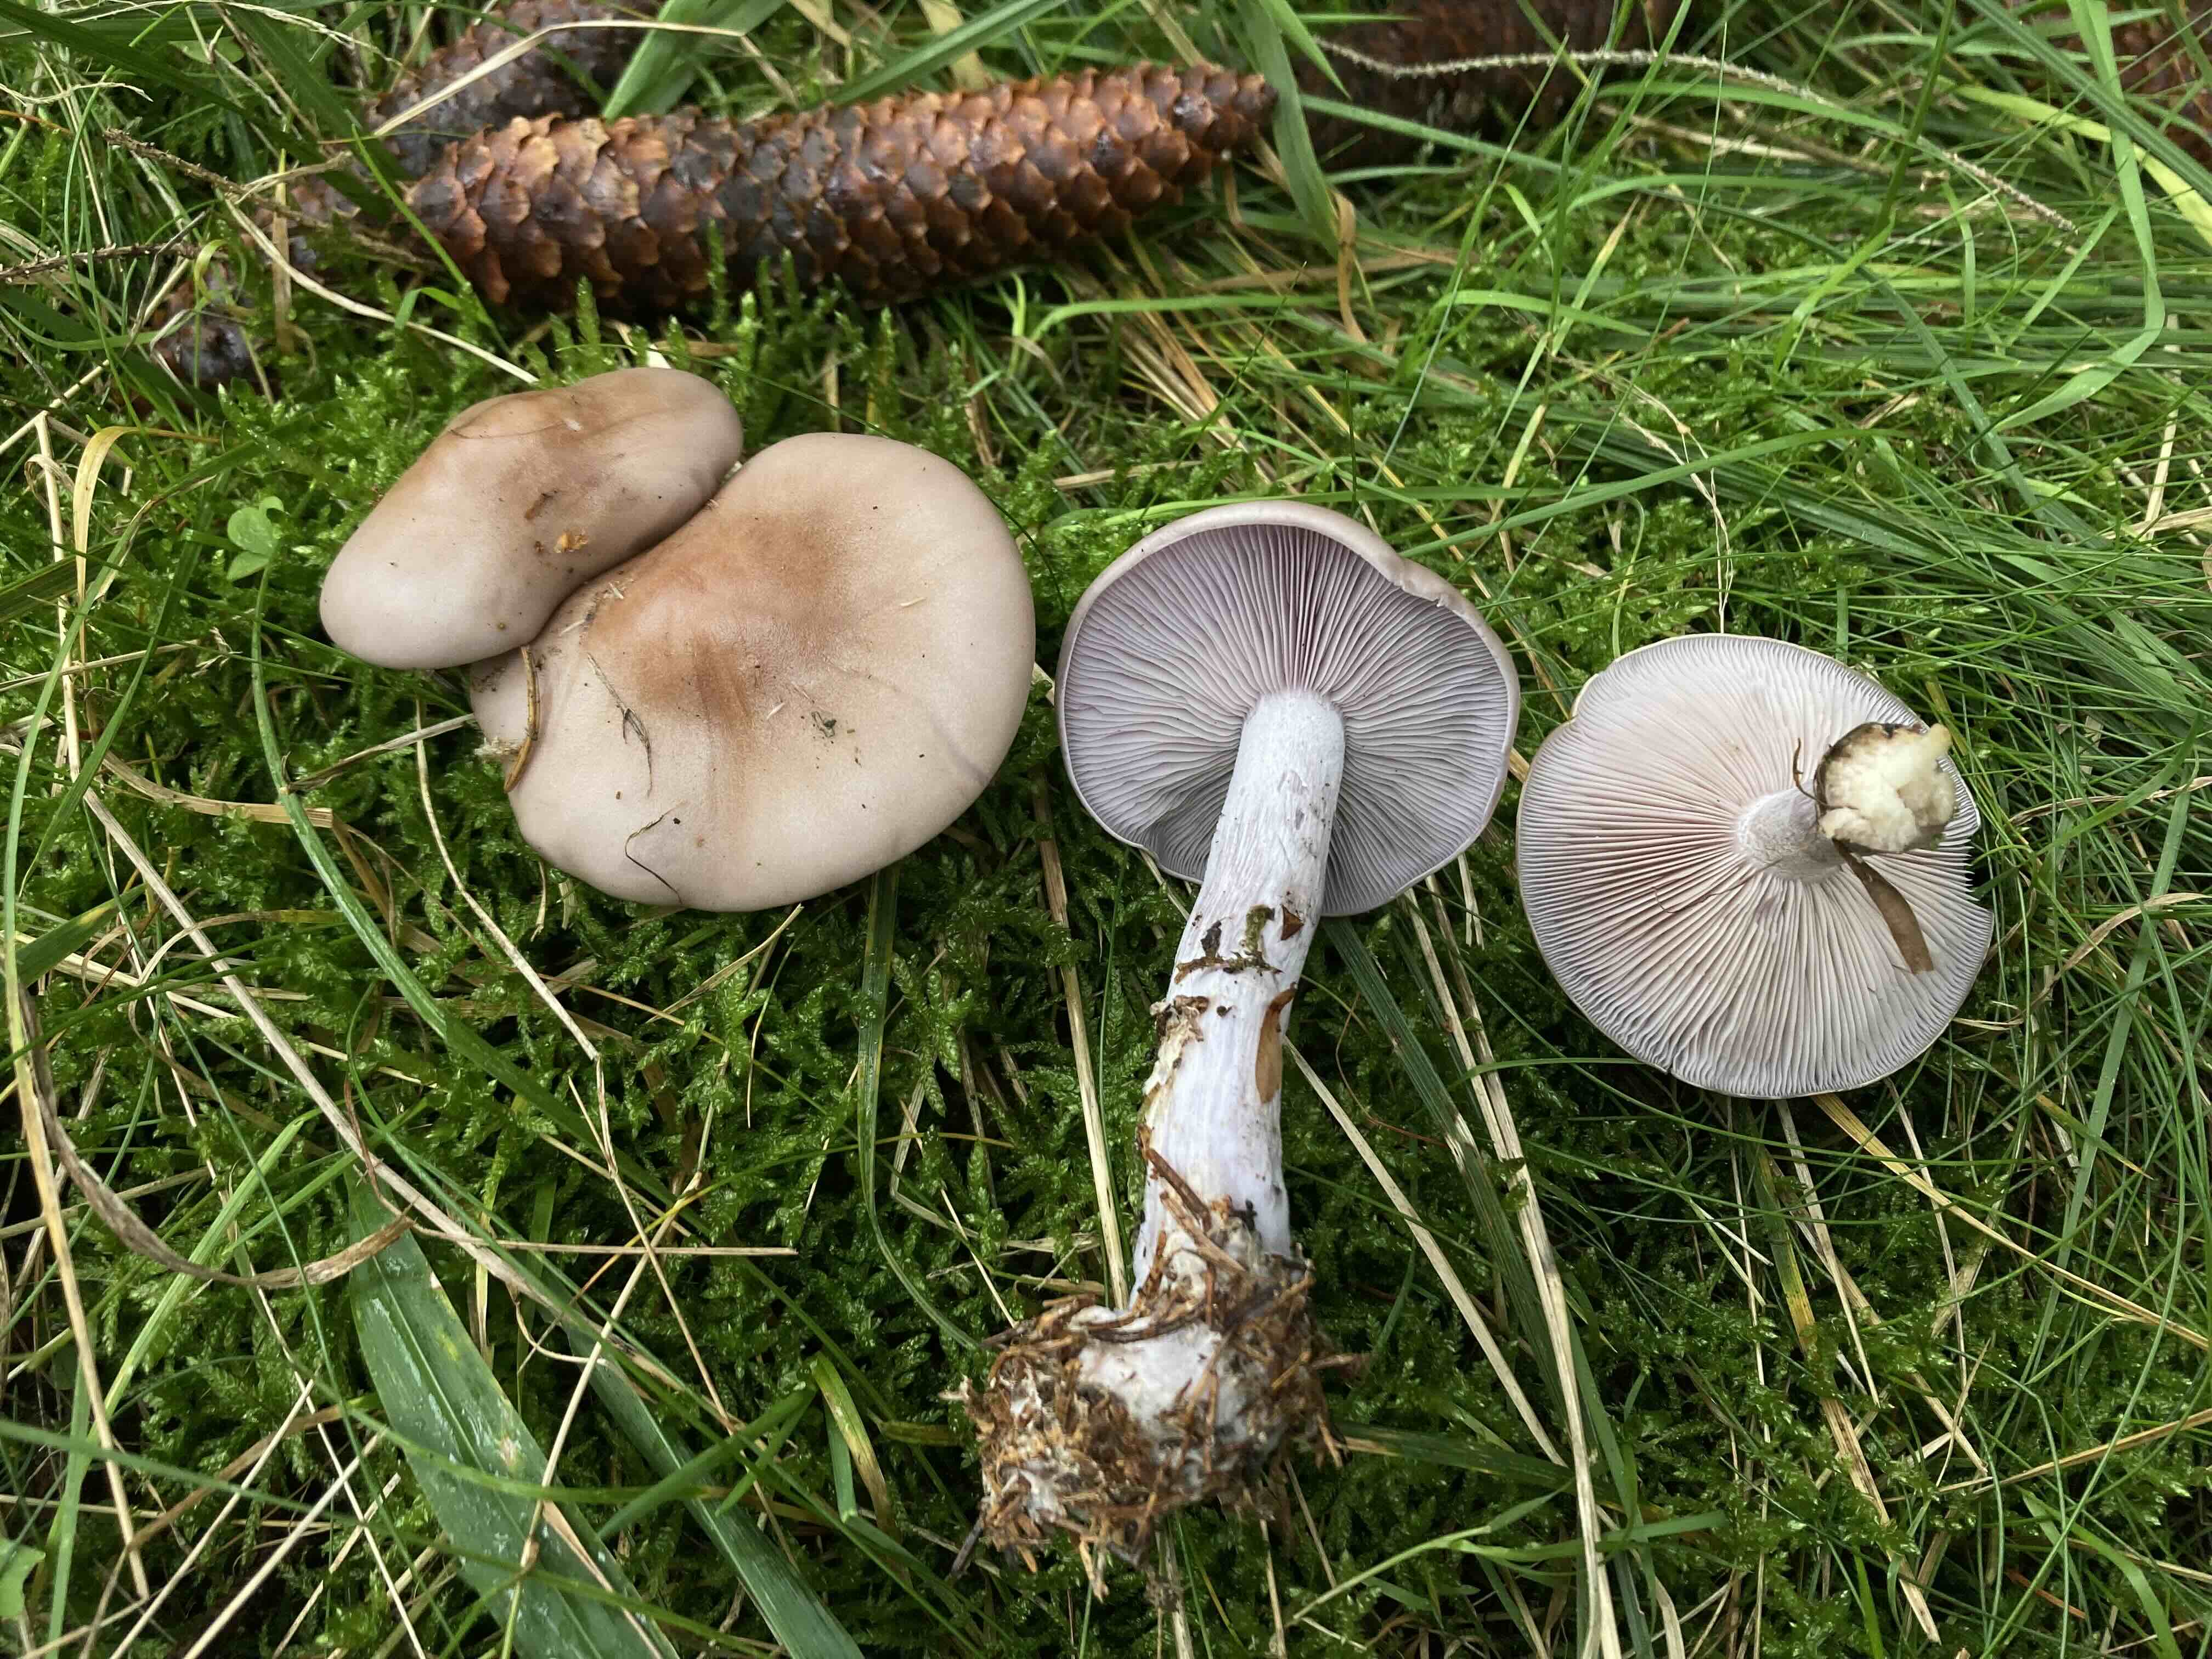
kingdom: Fungi
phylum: Basidiomycota
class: Agaricomycetes
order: Agaricales
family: Tricholomataceae
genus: Lepista
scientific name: Lepista nuda
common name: violet hekseringshat
